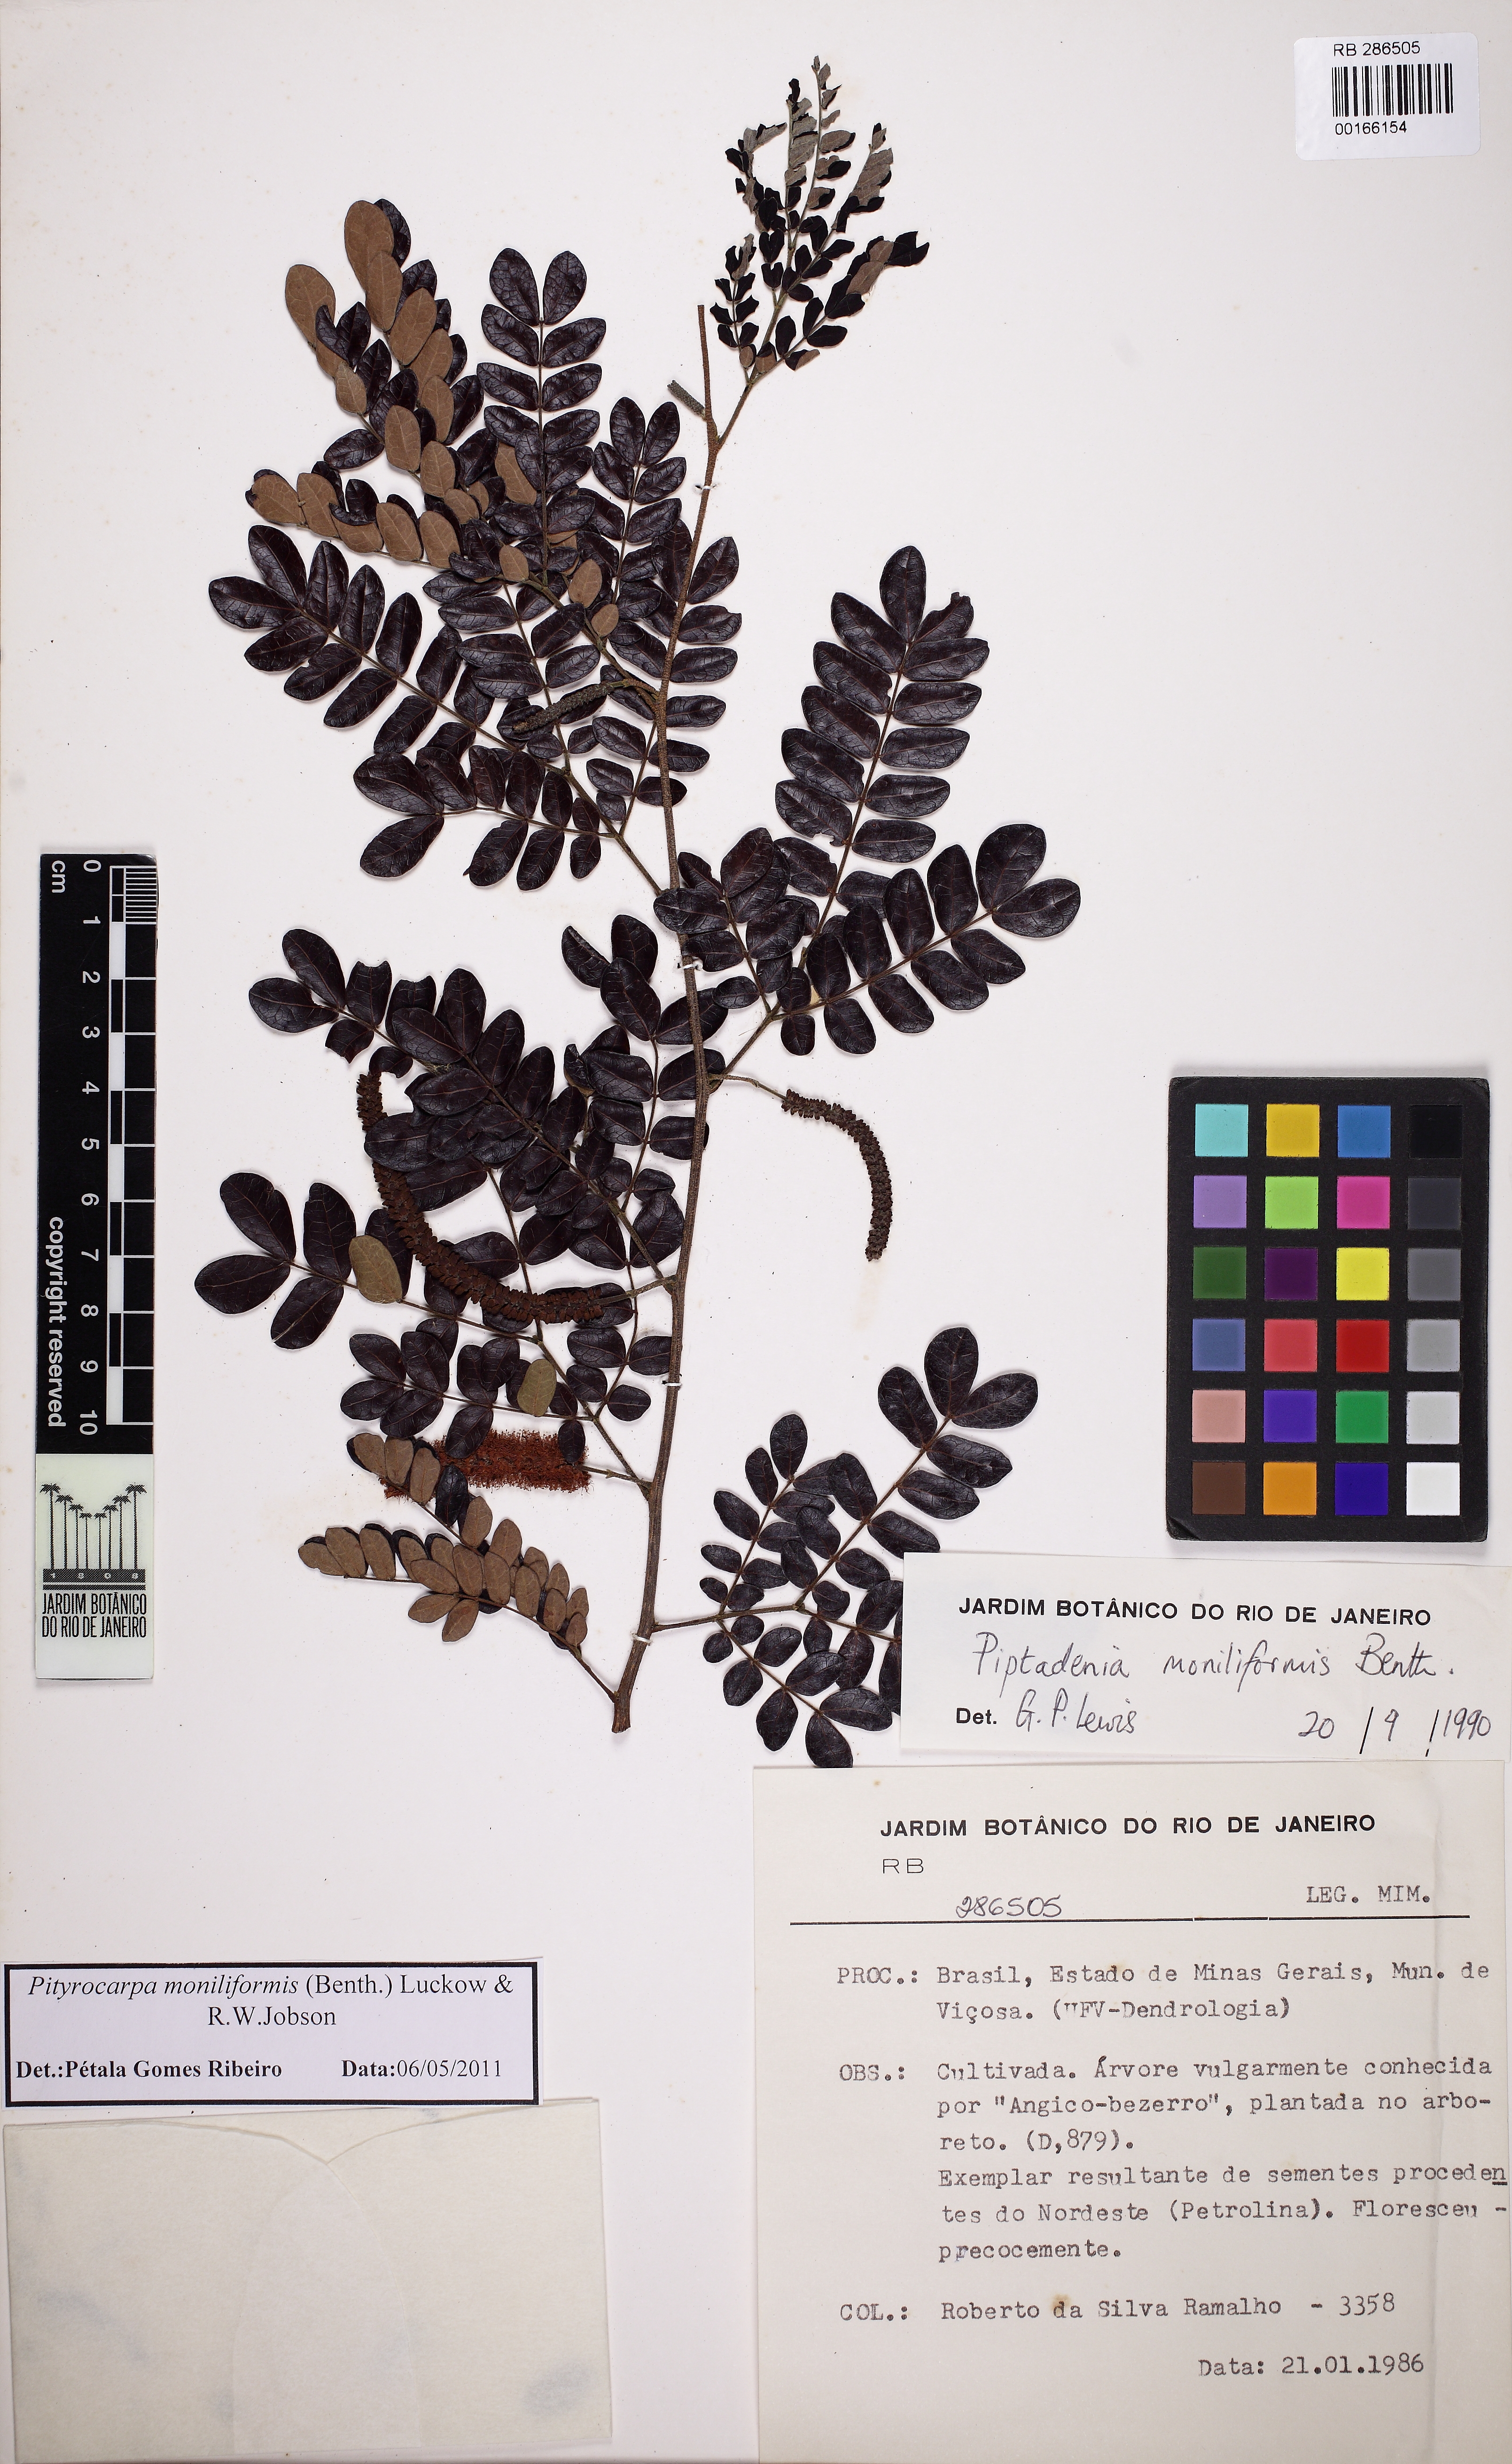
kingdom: Plantae
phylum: Tracheophyta
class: Magnoliopsida
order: Fabales
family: Fabaceae
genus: Pityrocarpa
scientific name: Pityrocarpa moniliformis
